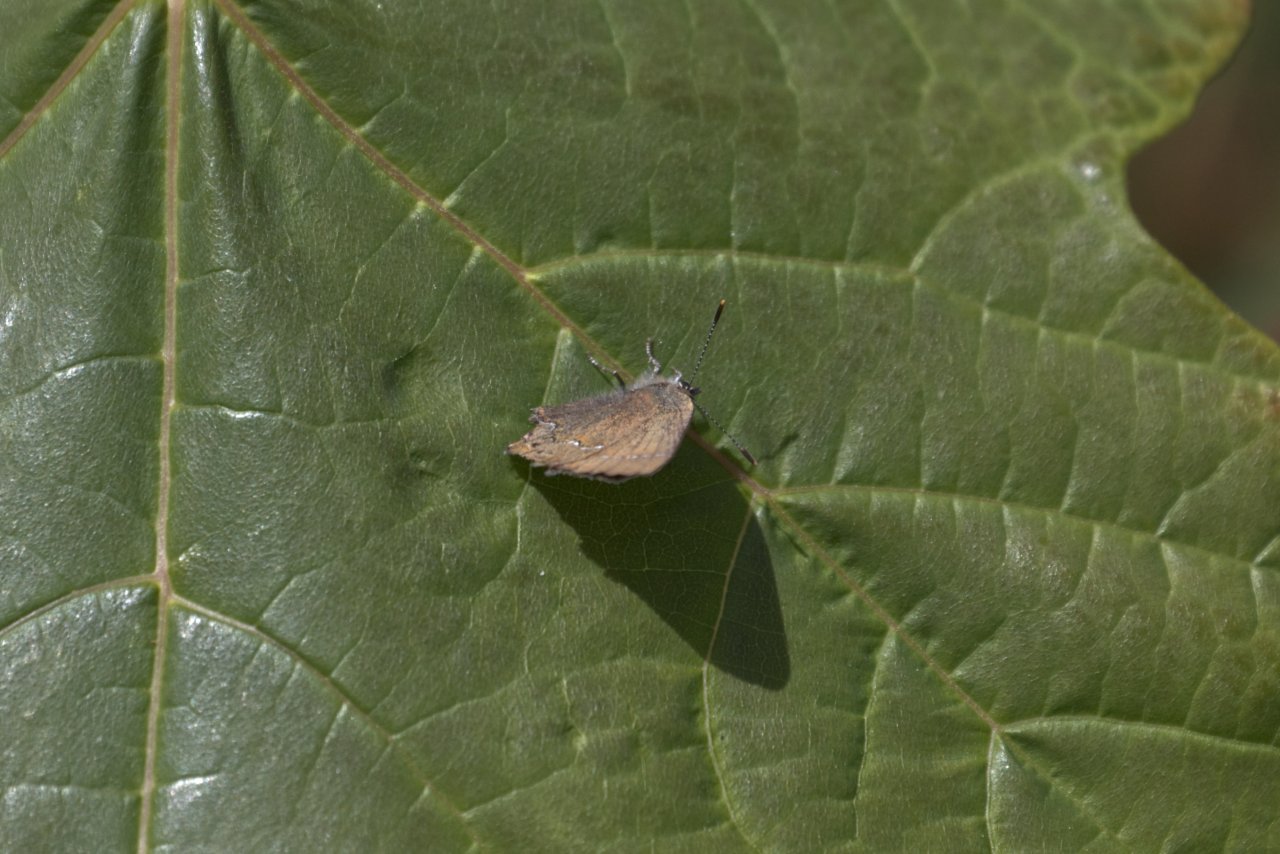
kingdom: Animalia
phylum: Arthropoda
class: Insecta
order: Lepidoptera
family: Lycaenidae
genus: Mitoura
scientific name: Mitoura gryneus
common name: Juniper Hairstreak
